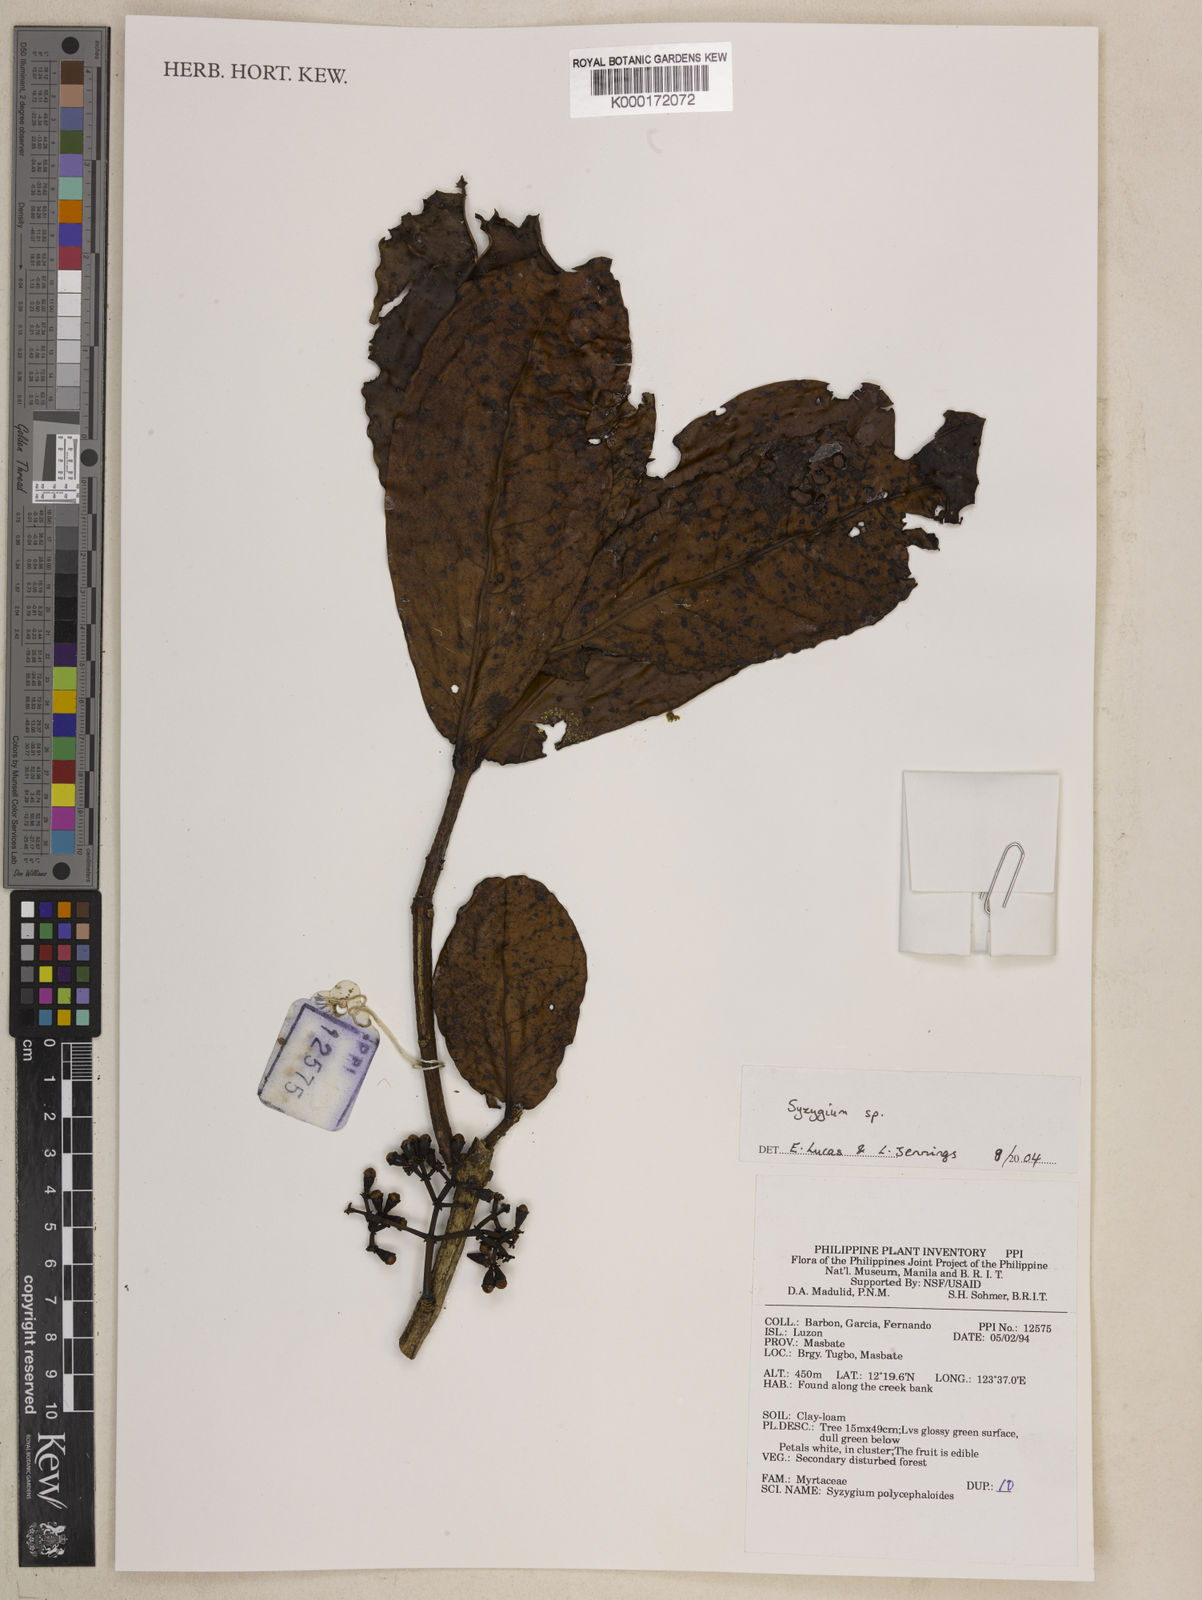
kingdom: Plantae
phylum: Tracheophyta
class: Magnoliopsida
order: Myrtales
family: Myrtaceae
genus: Syzygium
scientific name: Syzygium
